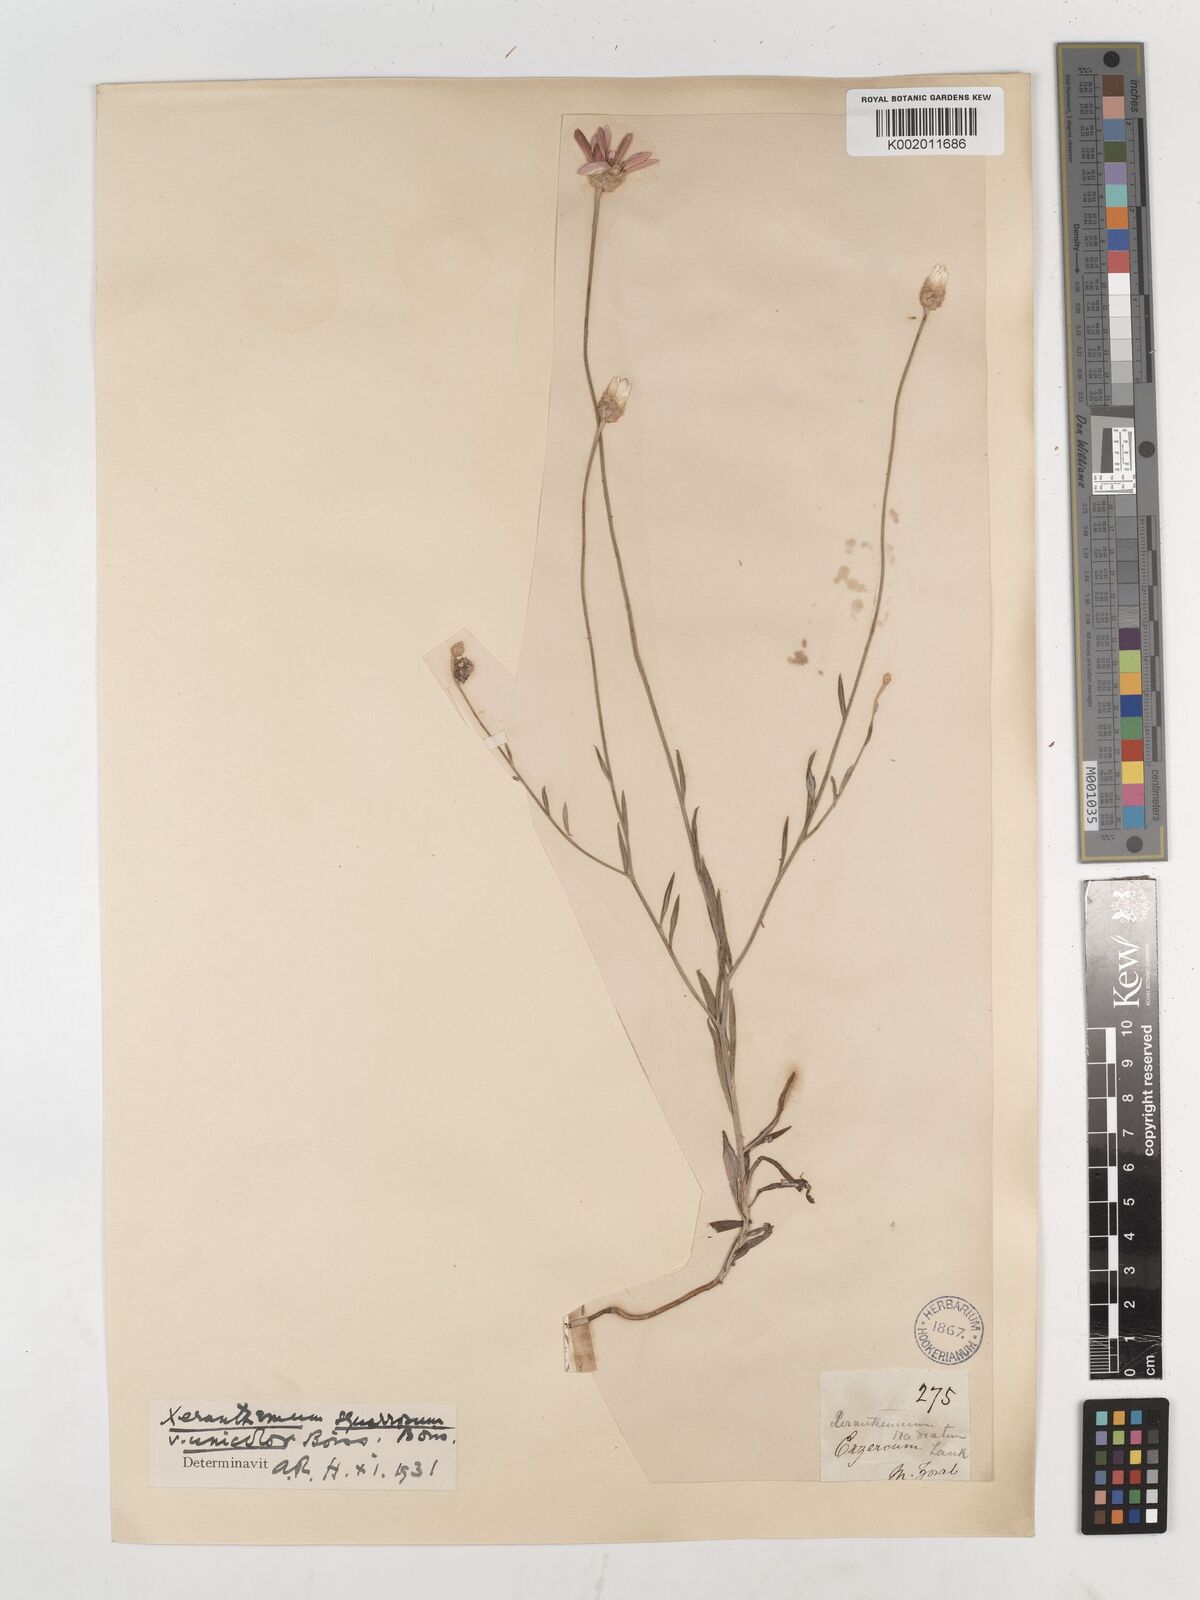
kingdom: Plantae
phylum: Tracheophyta
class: Magnoliopsida
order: Asterales
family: Asteraceae
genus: Xeranthemum
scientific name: Xeranthemum squarrosum
